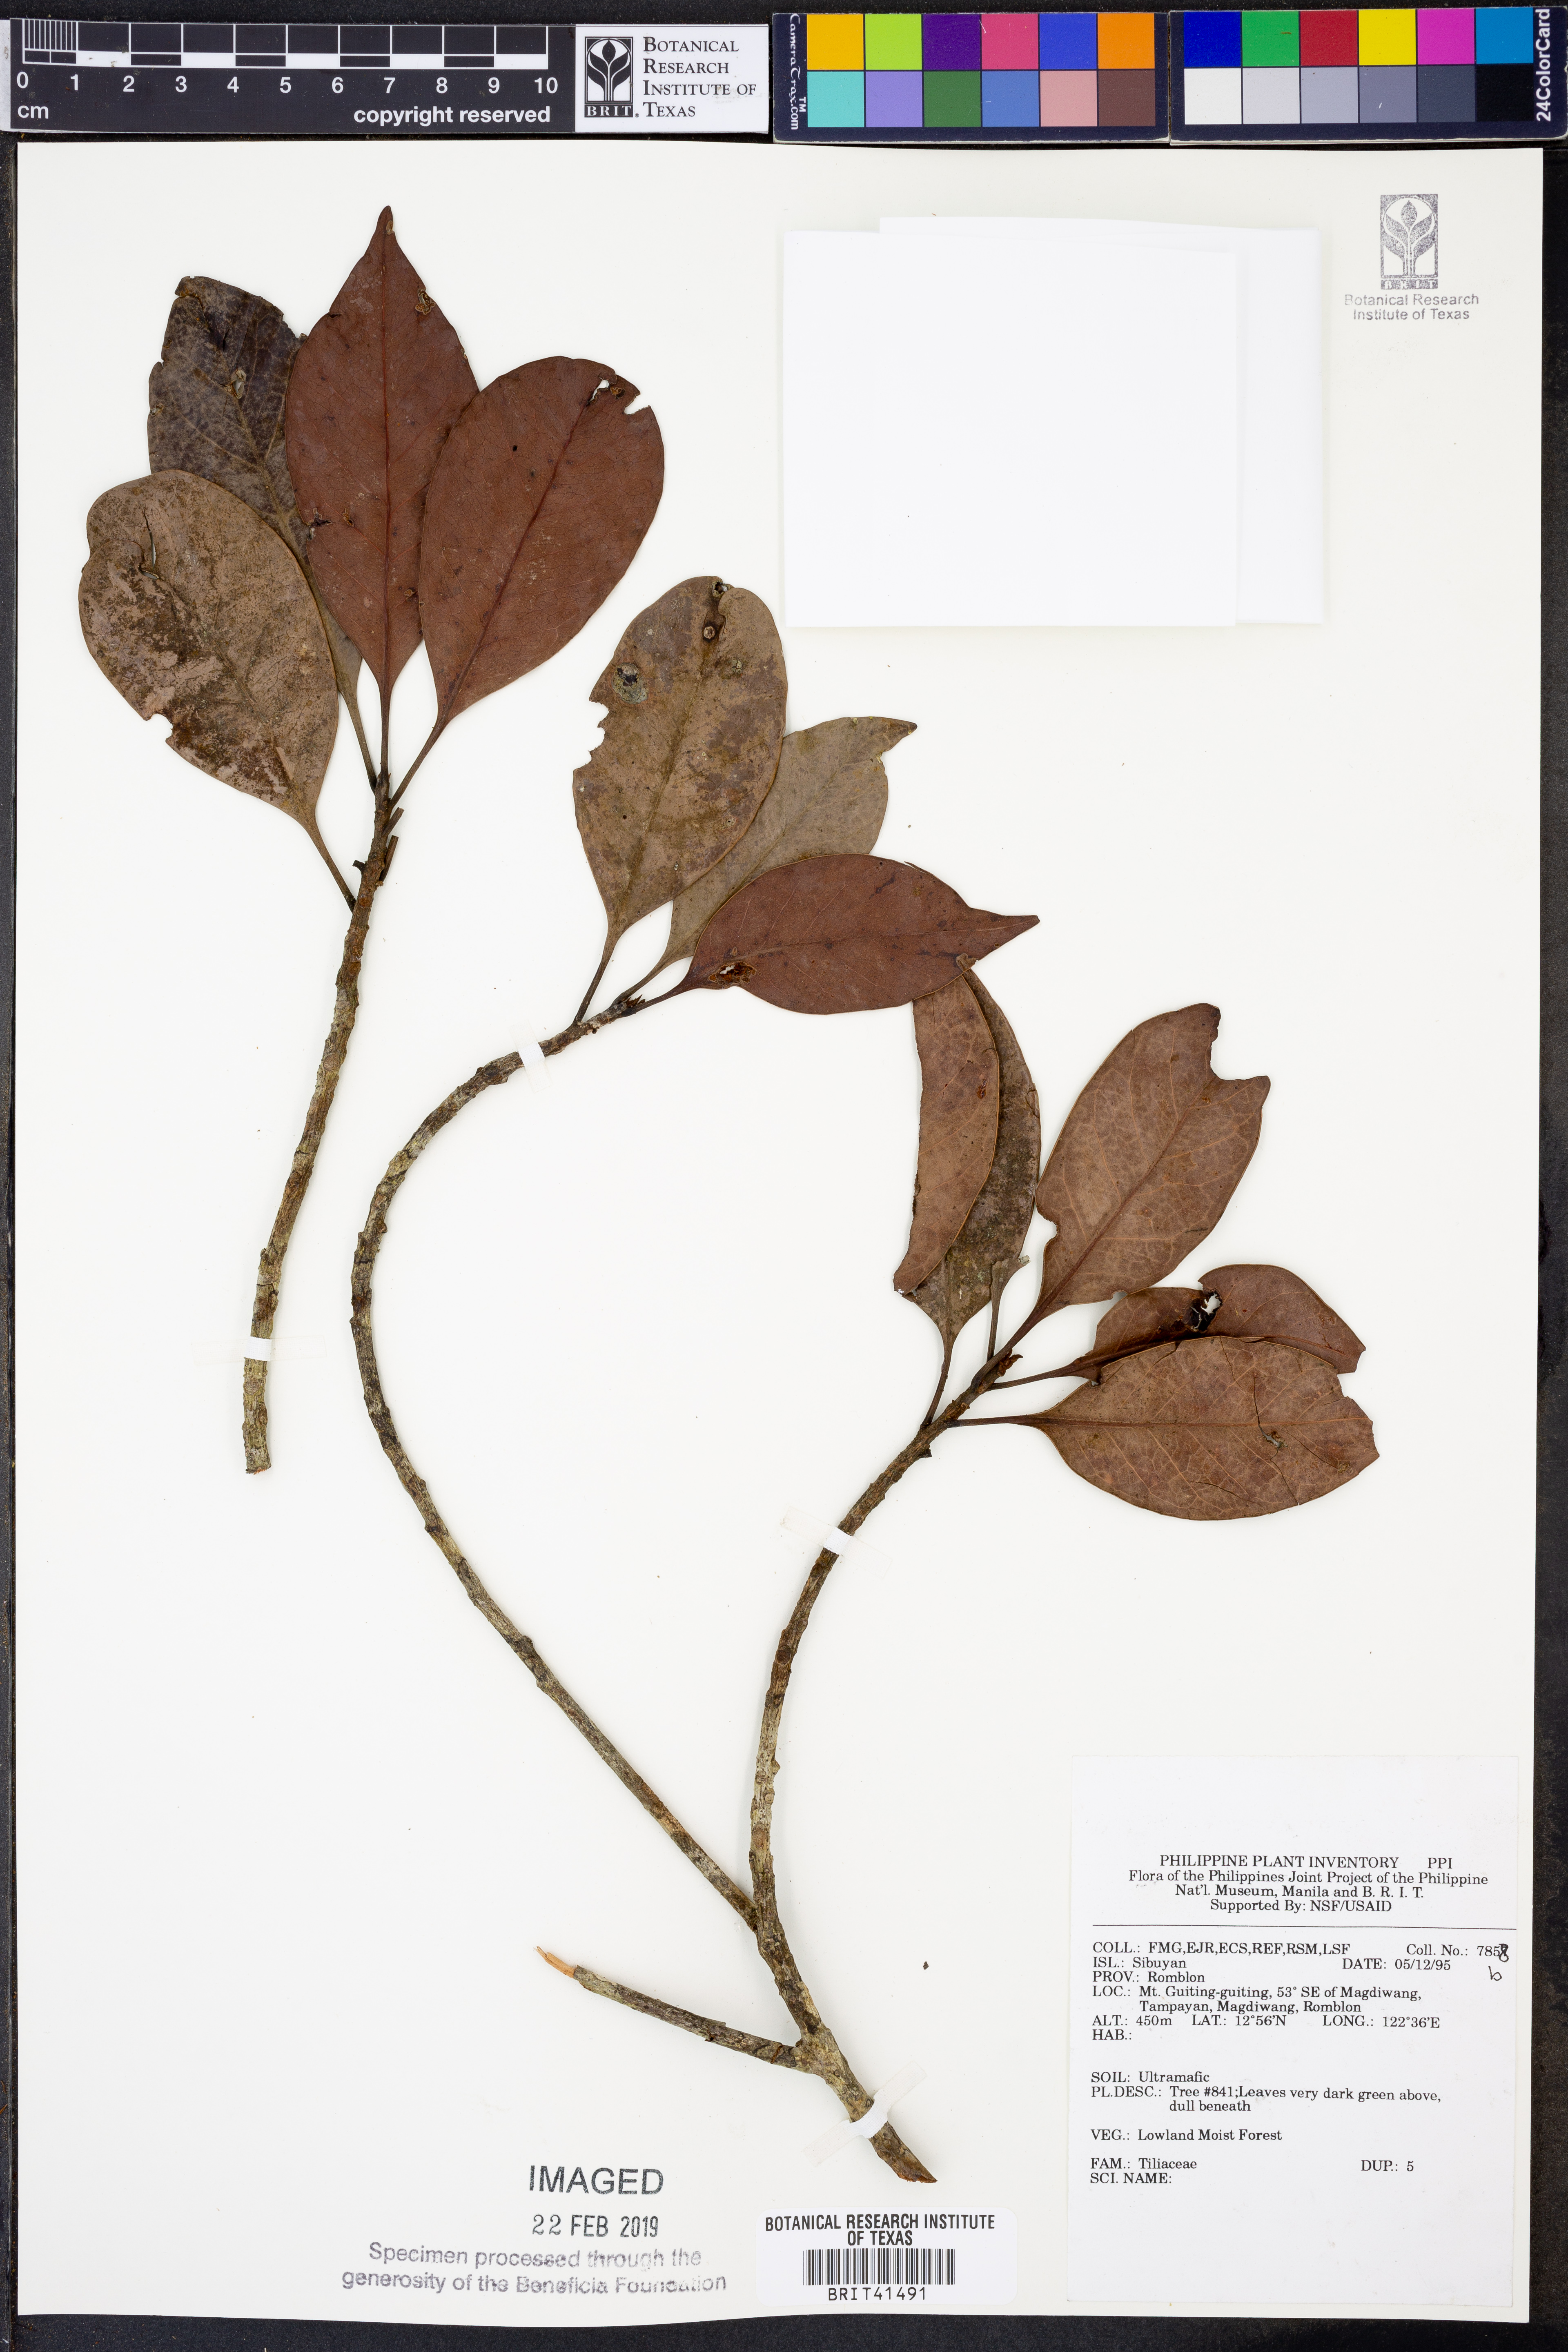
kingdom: Plantae
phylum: Tracheophyta
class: Magnoliopsida
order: Malvales
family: Tiliaceae
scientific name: Tiliaceae
